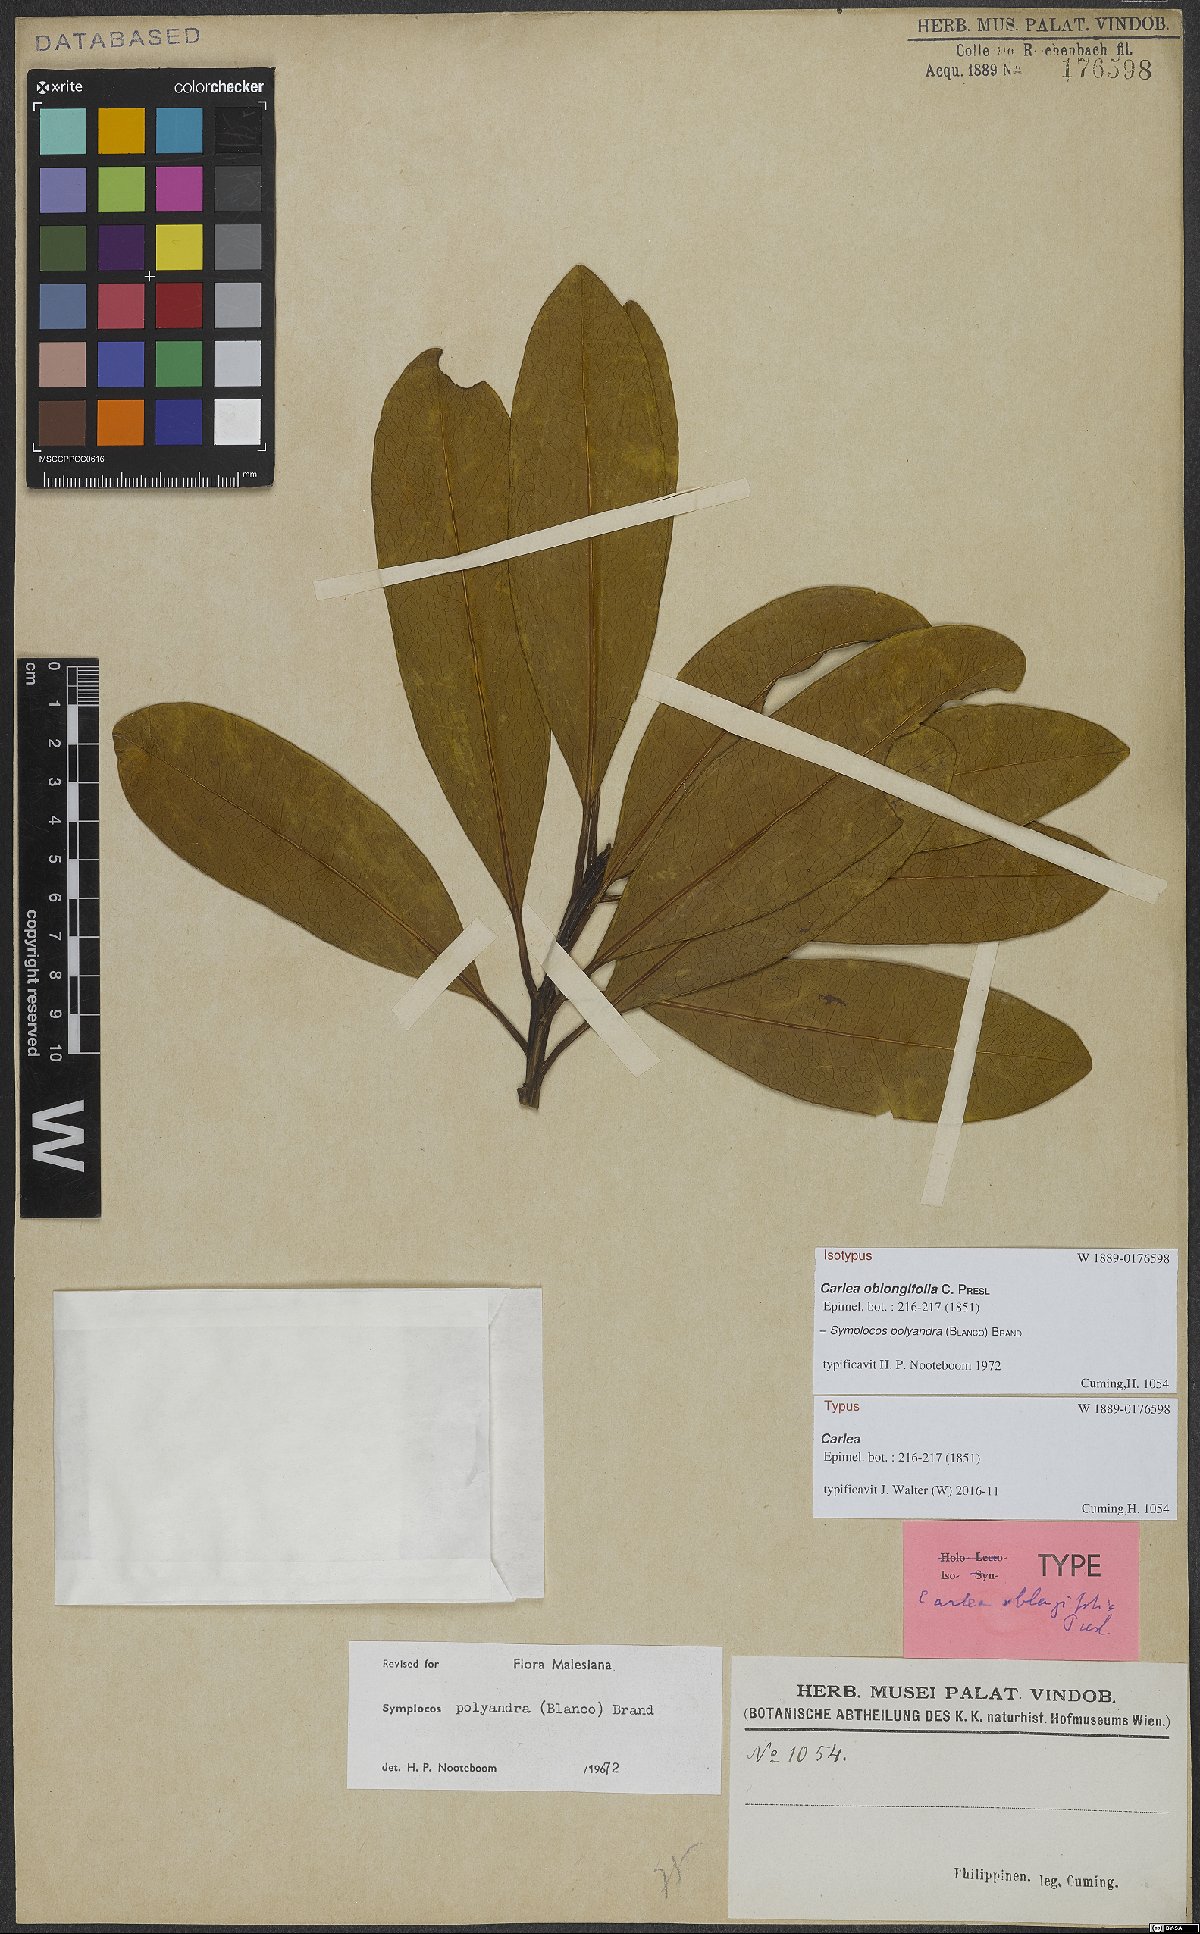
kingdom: Plantae
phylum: Tracheophyta
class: Magnoliopsida
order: Ericales
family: Symplocaceae
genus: Symplocos
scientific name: Symplocos polyandra
